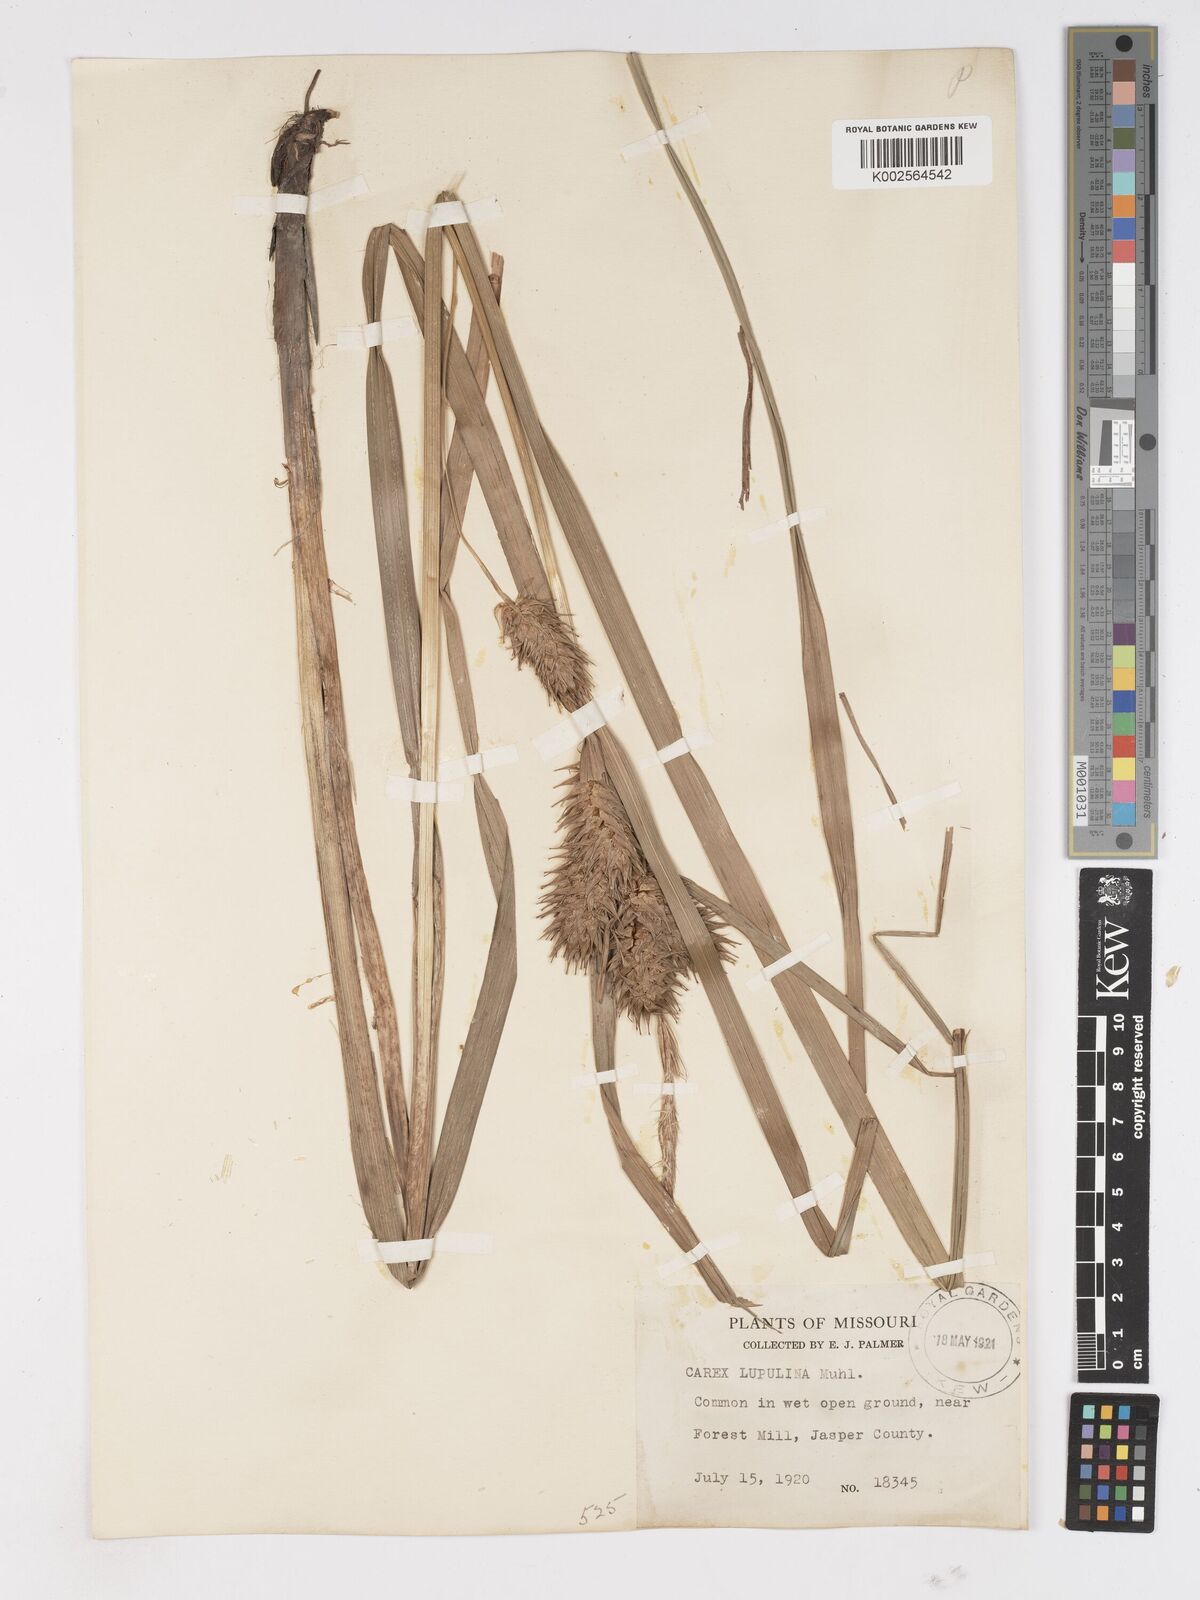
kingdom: Plantae
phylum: Tracheophyta
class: Liliopsida
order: Poales
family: Cyperaceae
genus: Carex
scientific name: Carex lupulina
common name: Hop sedge
